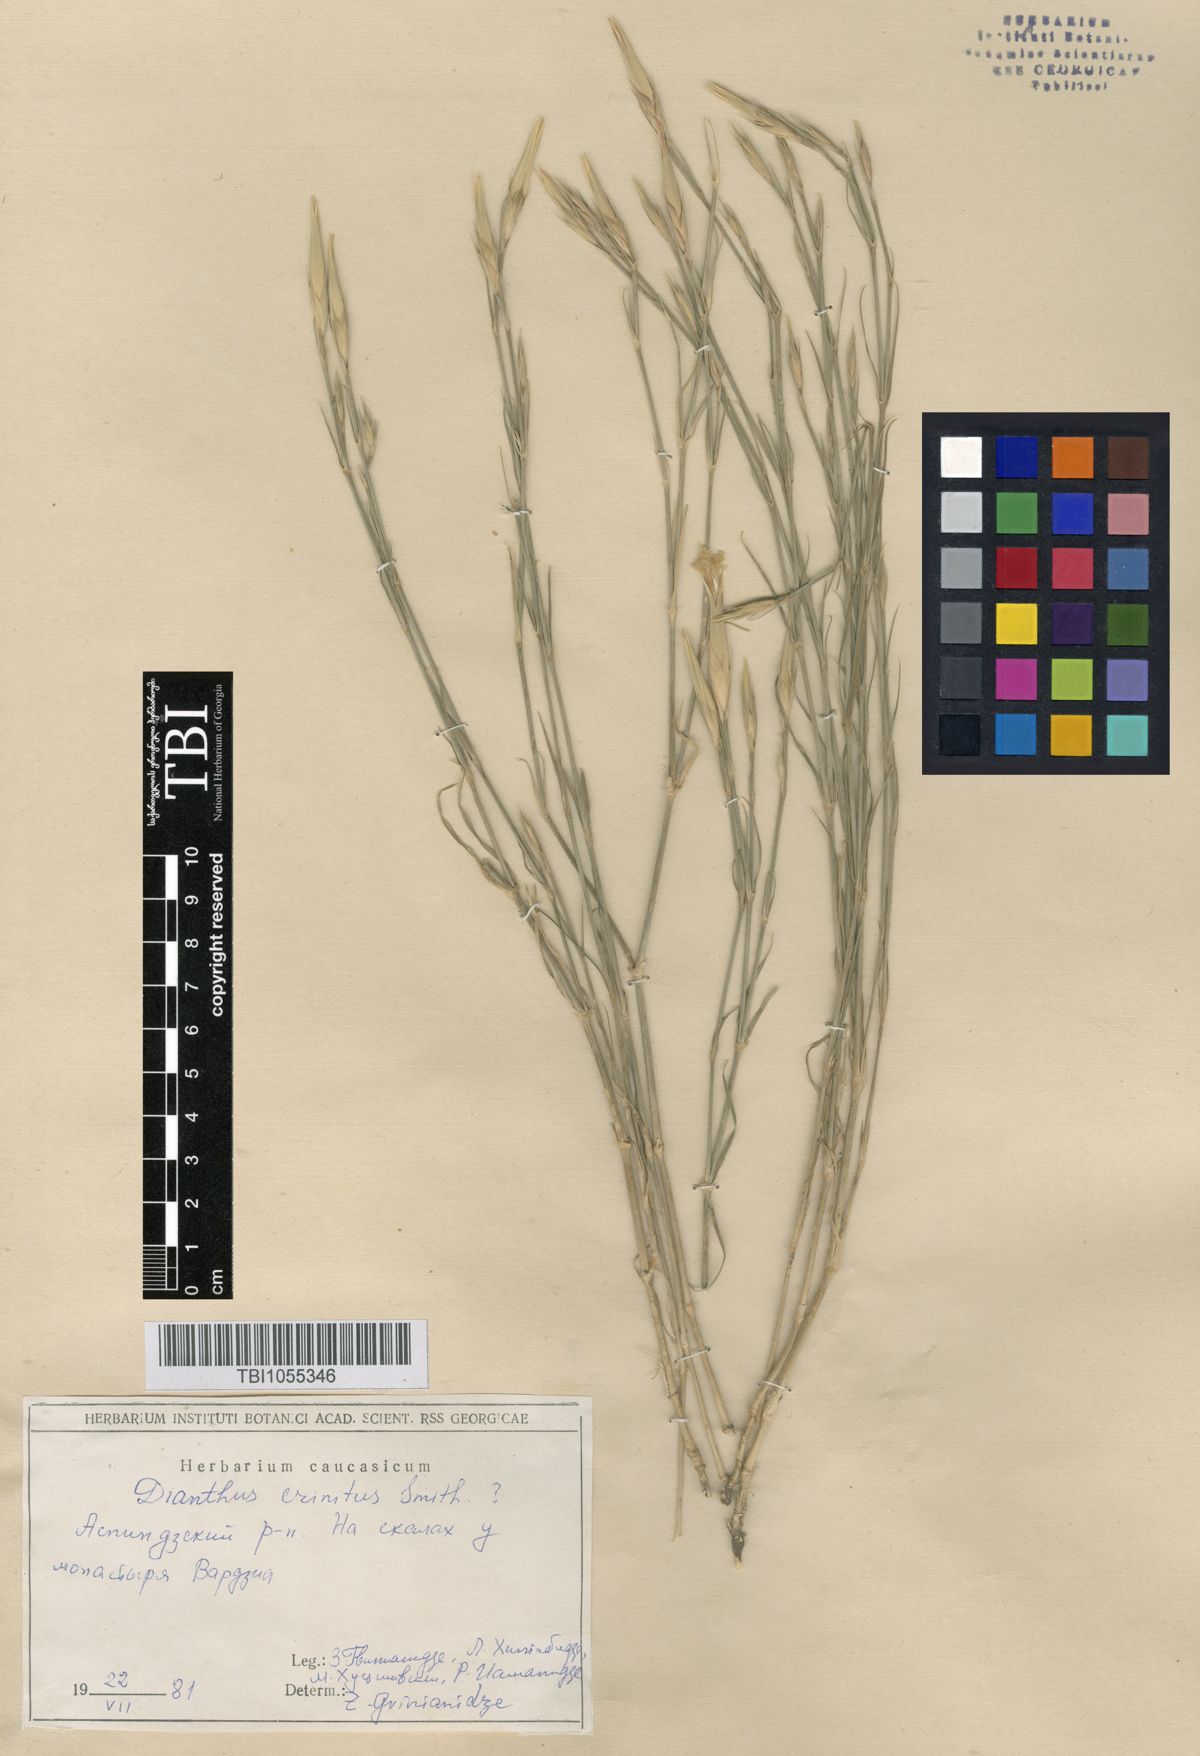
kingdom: Plantae
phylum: Tracheophyta
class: Magnoliopsida
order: Caryophyllales
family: Caryophyllaceae
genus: Dianthus
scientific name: Dianthus crinitus
